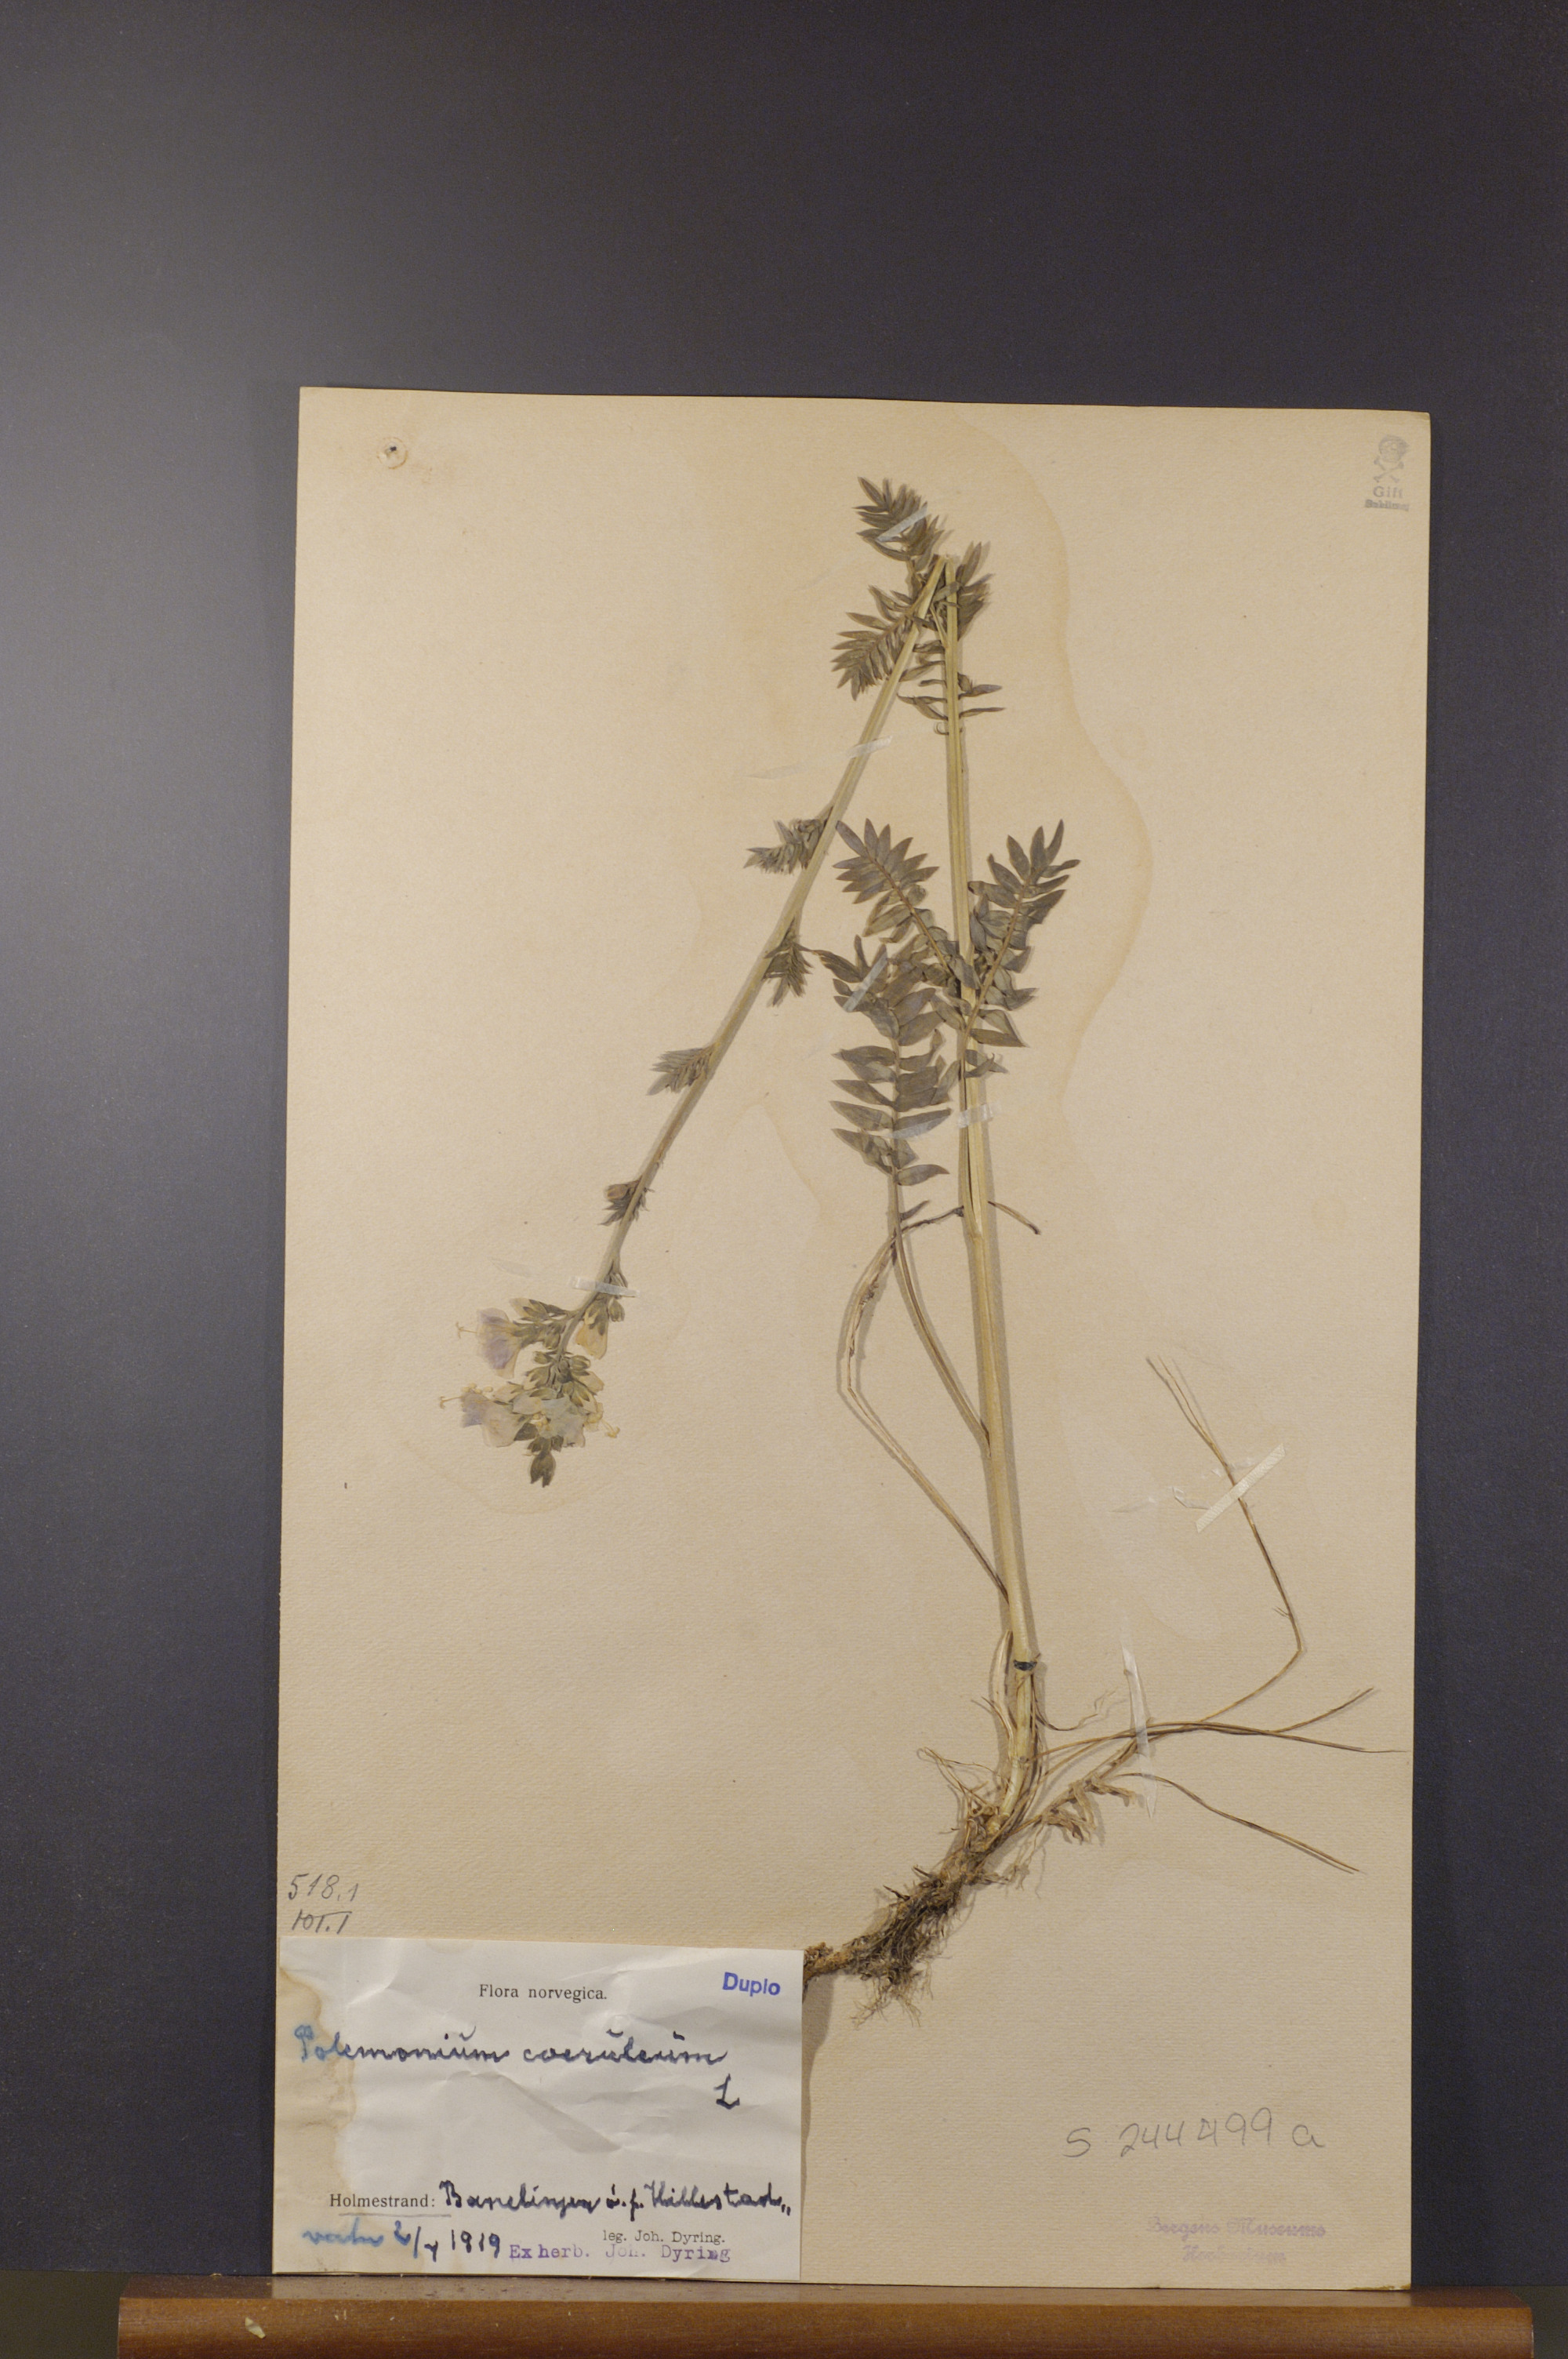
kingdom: Plantae
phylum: Tracheophyta
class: Magnoliopsida
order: Ericales
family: Polemoniaceae
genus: Polemonium
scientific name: Polemonium caeruleum
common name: Jacob's-ladder
